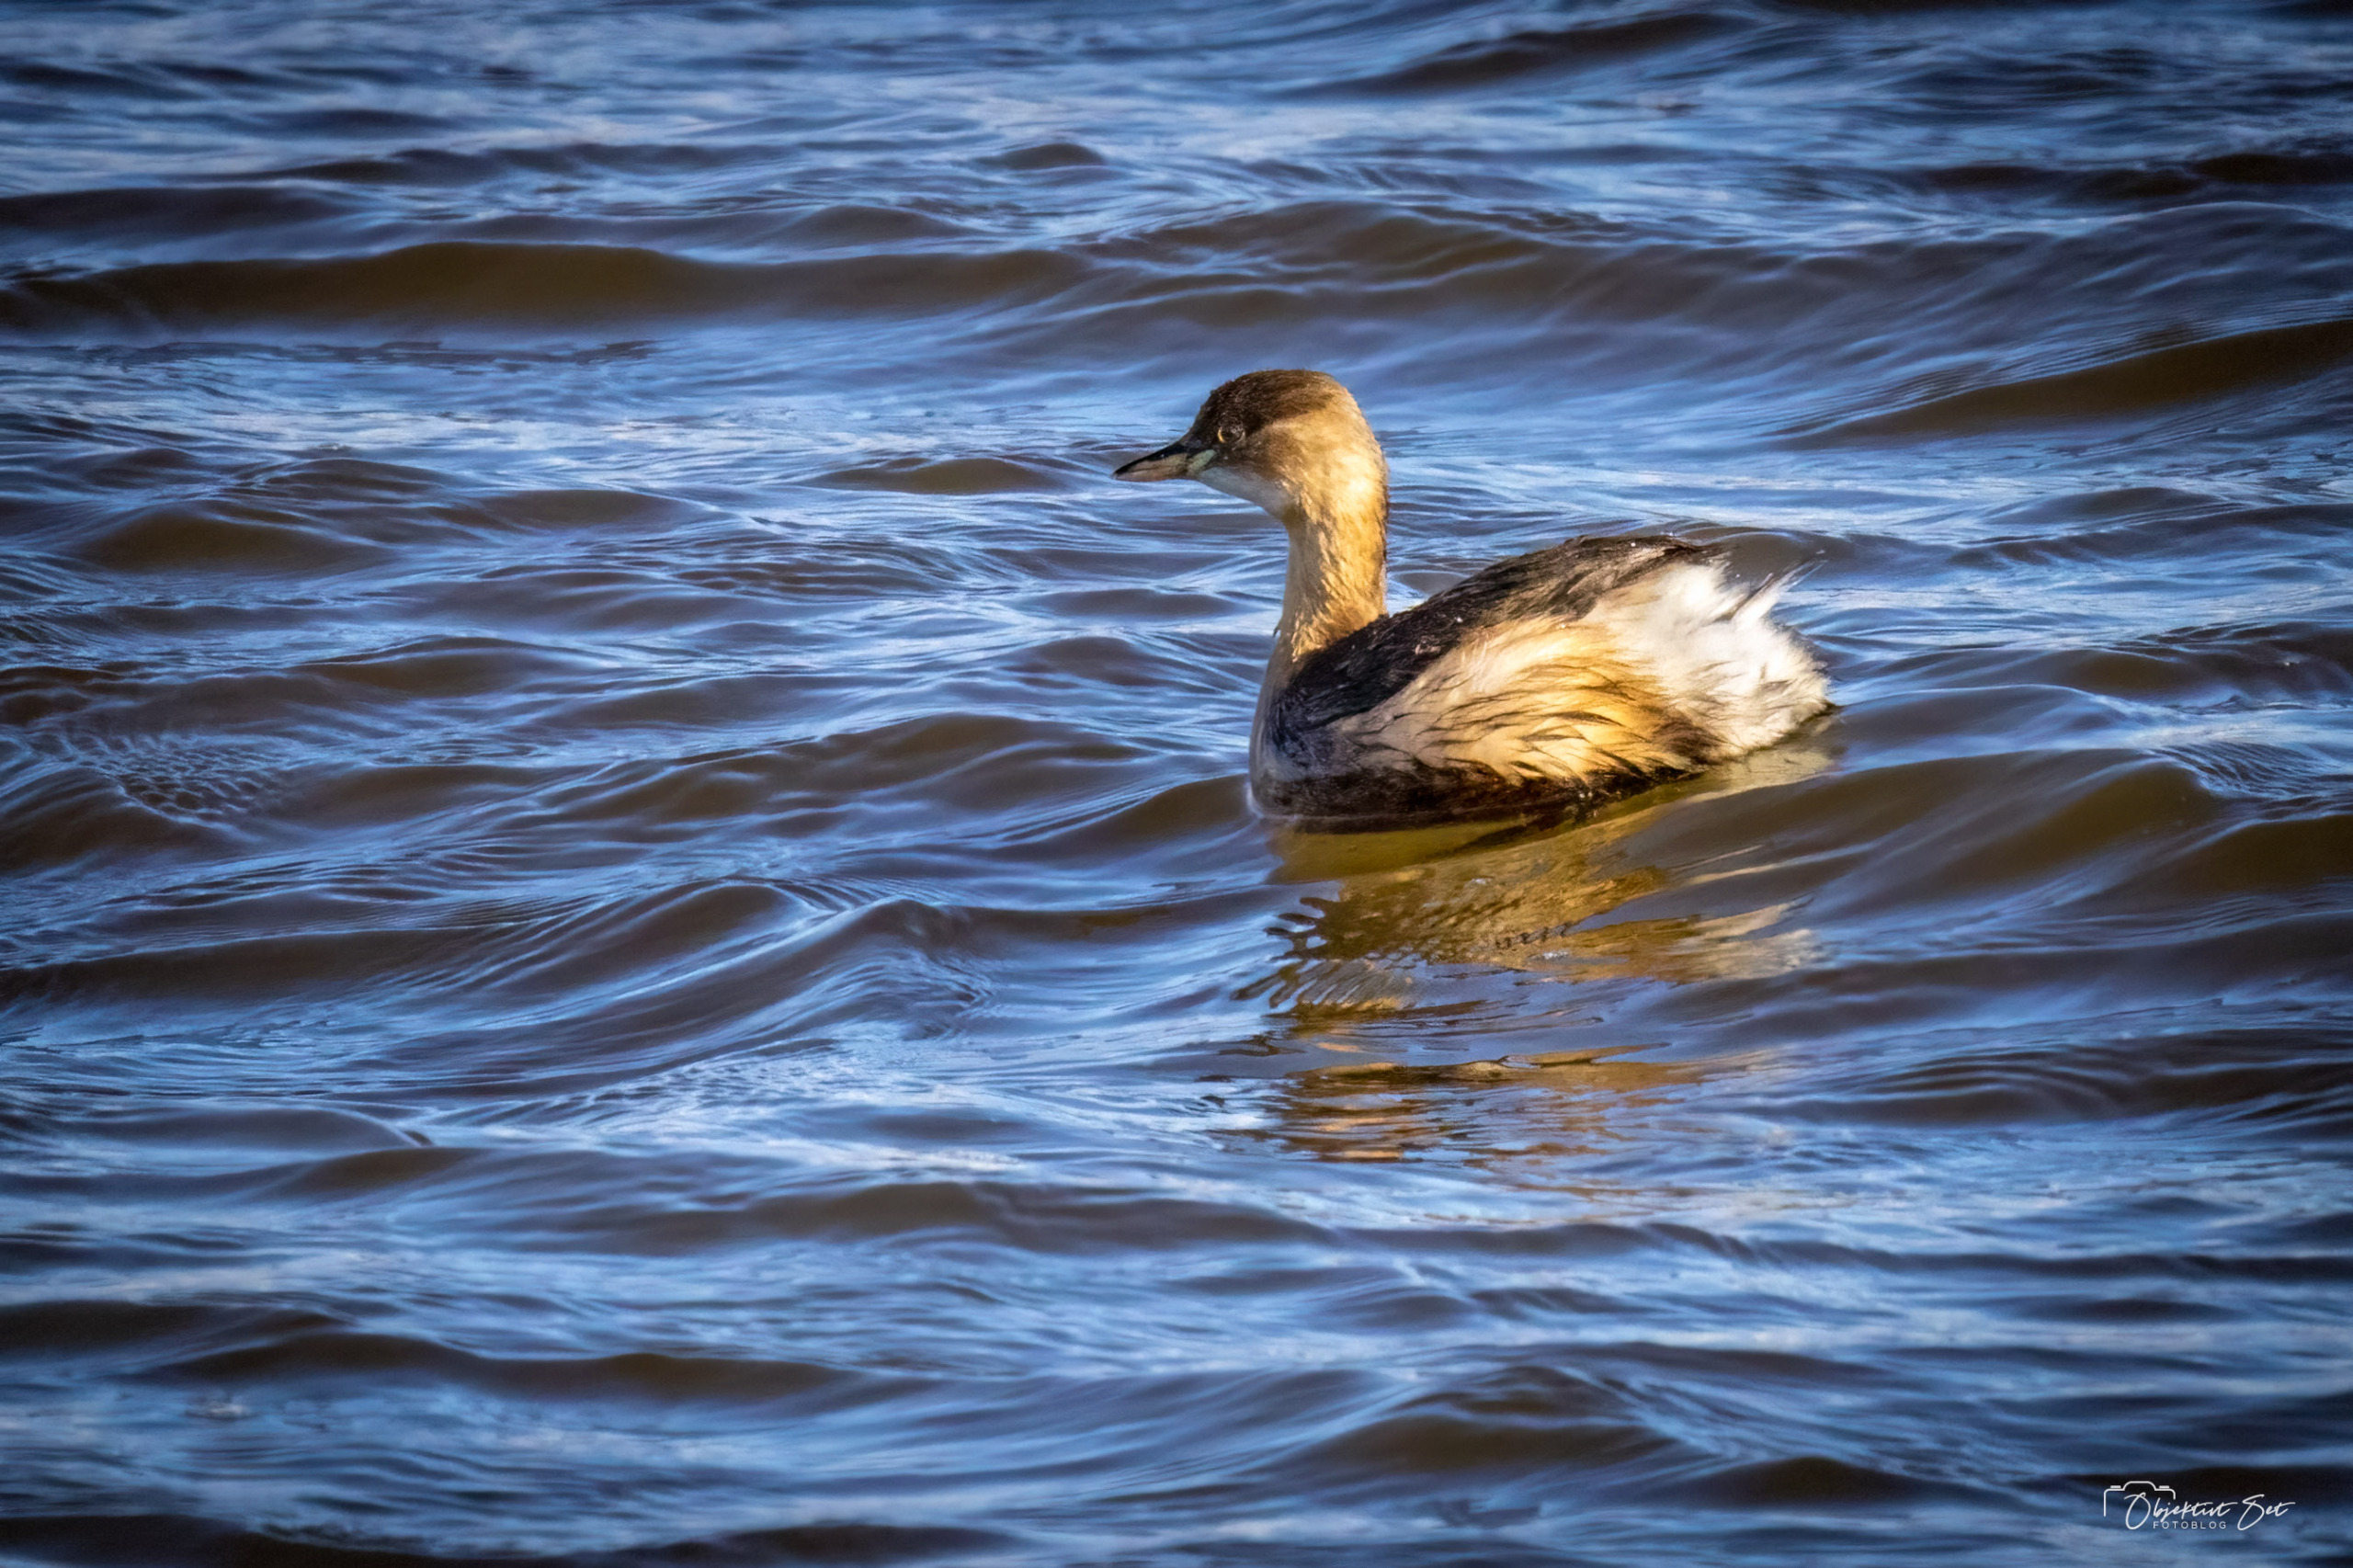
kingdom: Animalia
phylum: Chordata
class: Aves
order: Podicipediformes
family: Podicipedidae
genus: Tachybaptus
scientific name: Tachybaptus ruficollis
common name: Lille lappedykker
